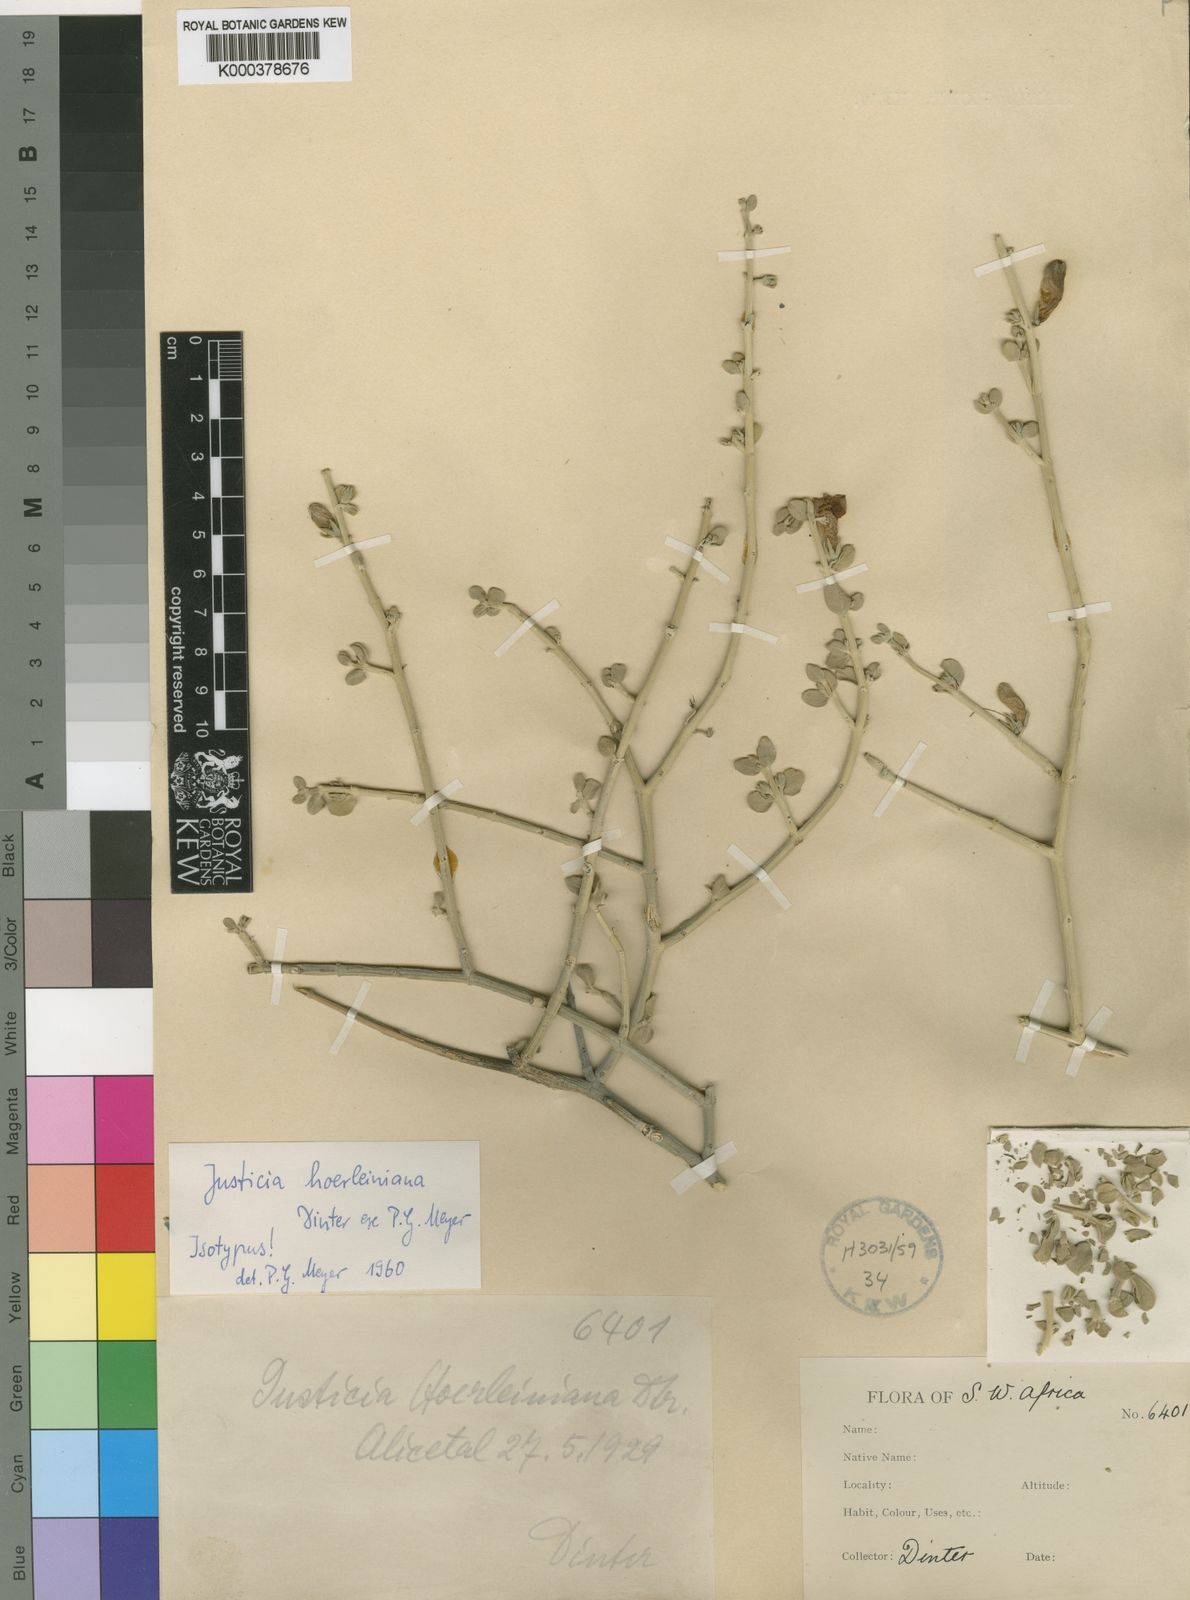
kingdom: Plantae
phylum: Tracheophyta
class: Magnoliopsida
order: Lamiales
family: Acanthaceae
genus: Justicia
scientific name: Justicia cuneata
